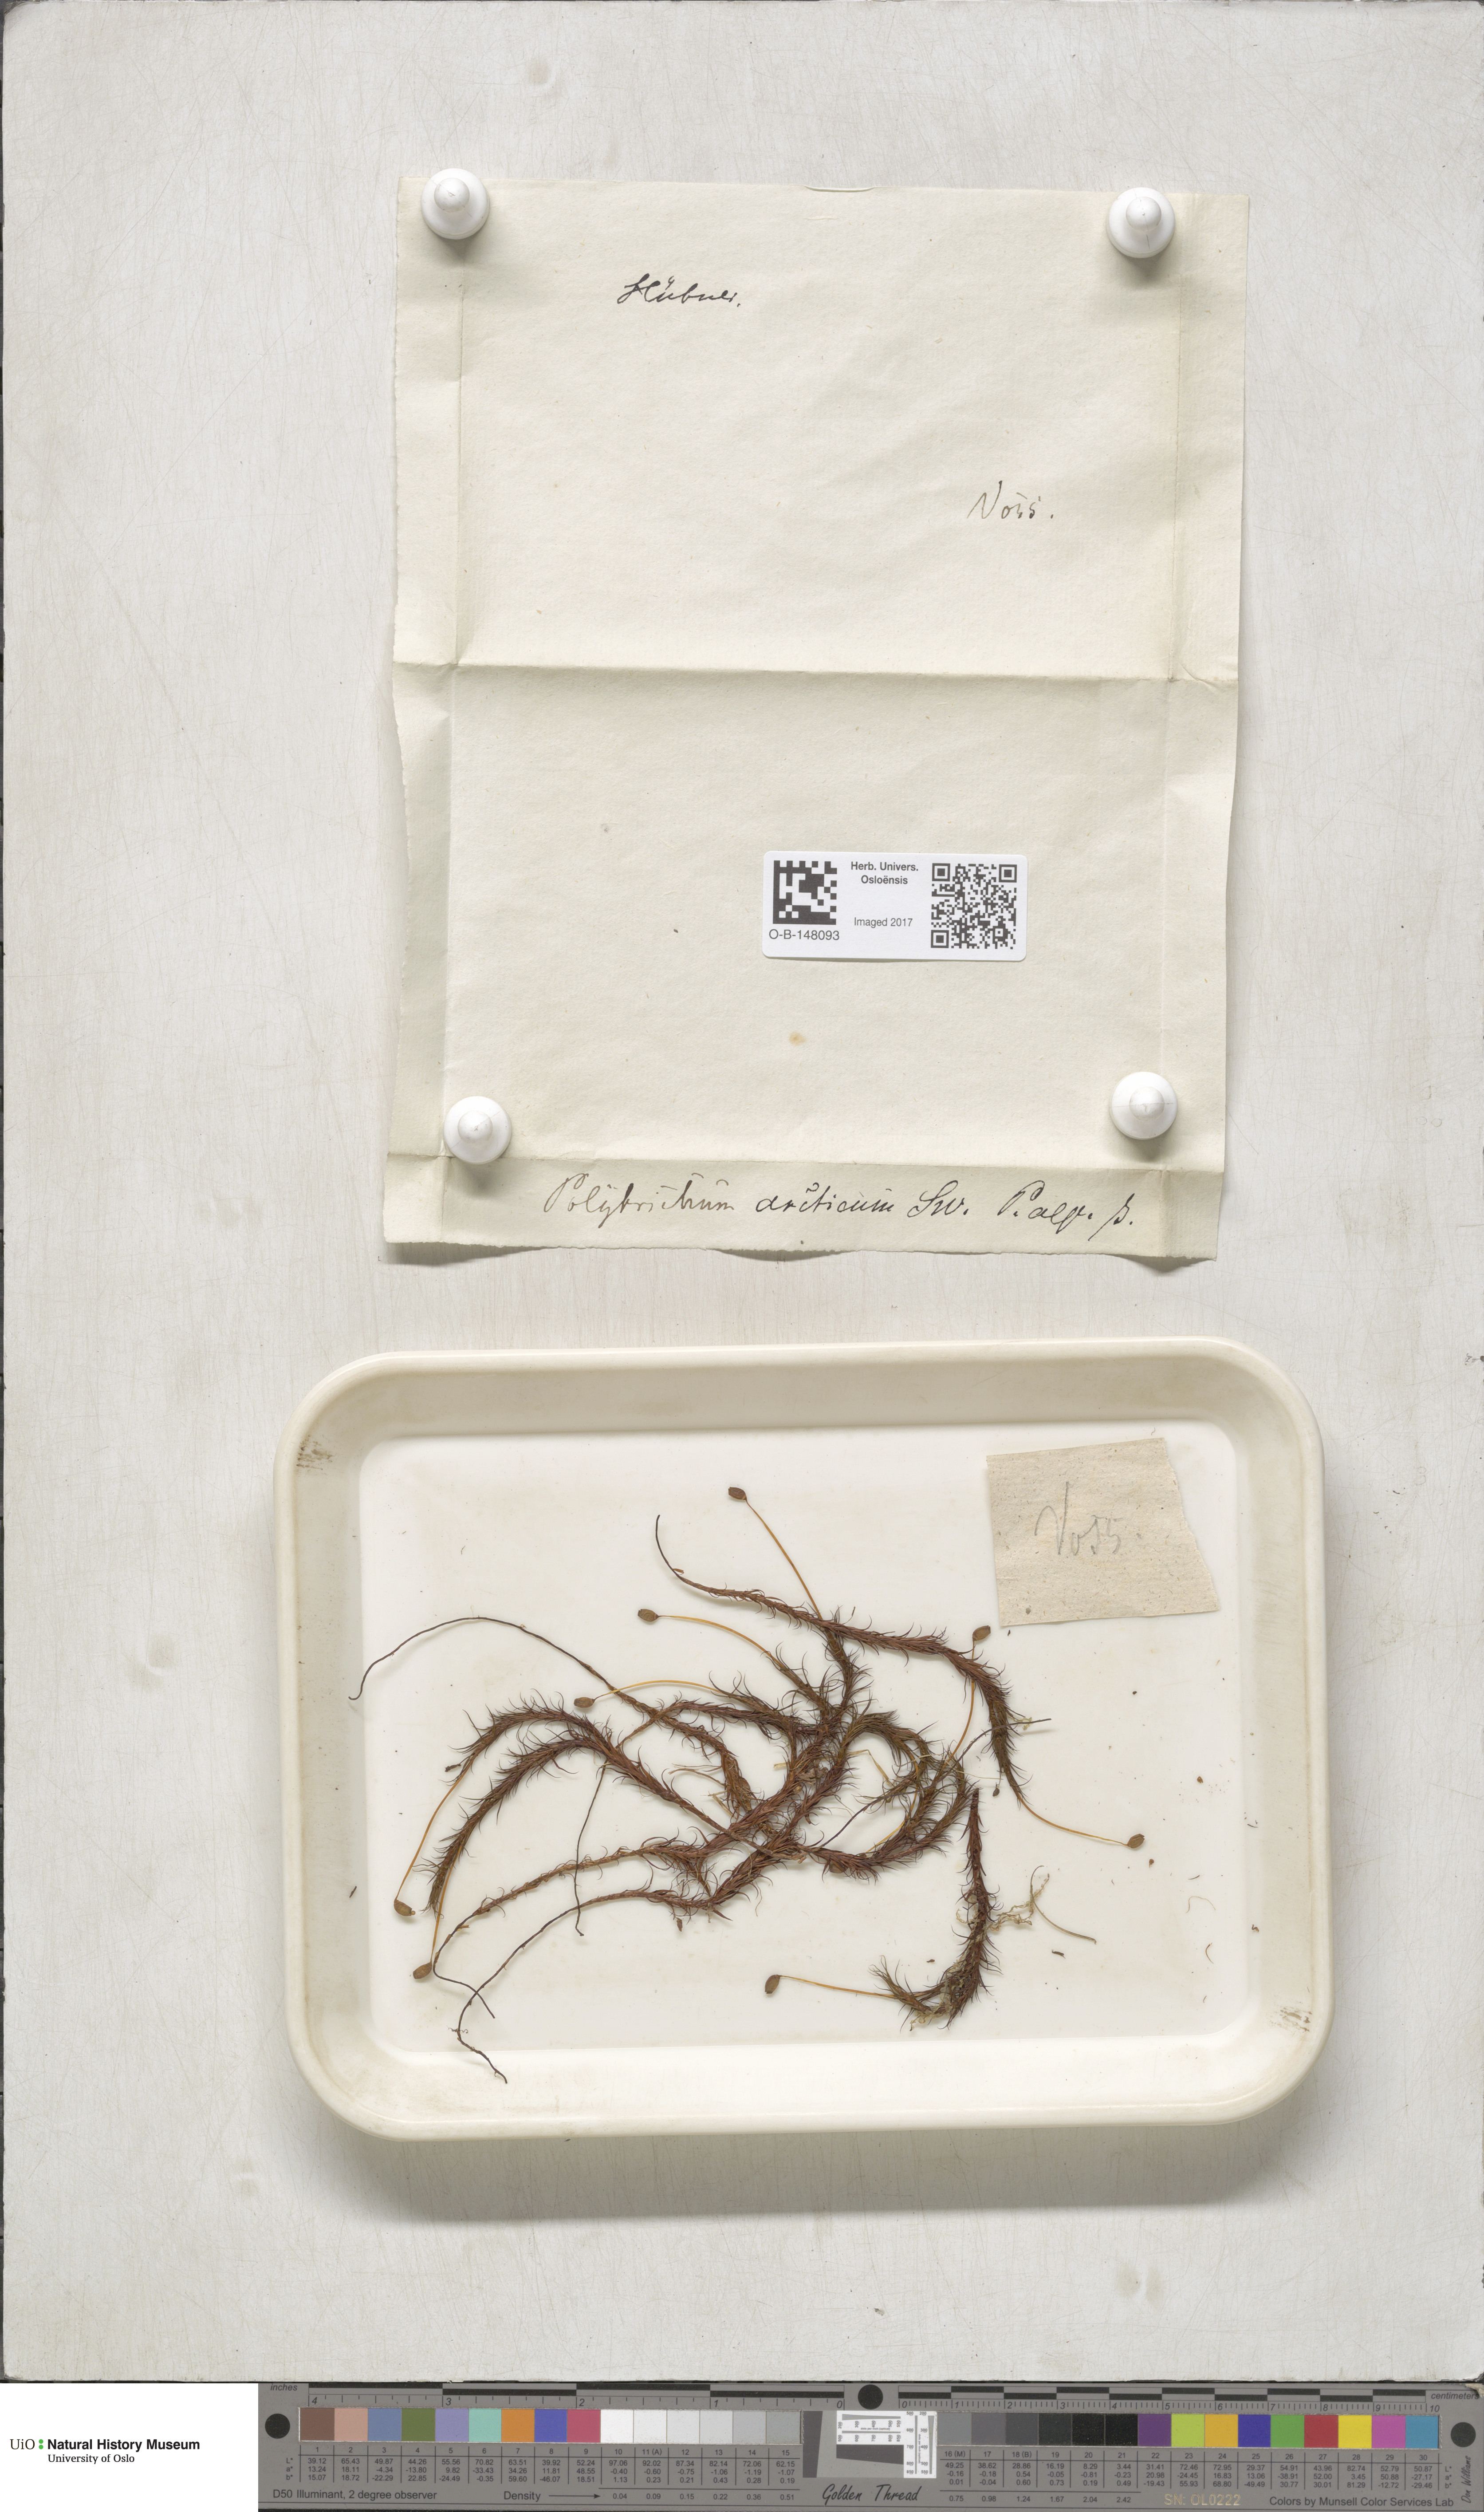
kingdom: Plantae
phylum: Bryophyta
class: Polytrichopsida
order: Polytrichales
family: Polytrichaceae
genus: Polytrichastrum
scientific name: Polytrichastrum alpinum
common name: Alpine haircap
